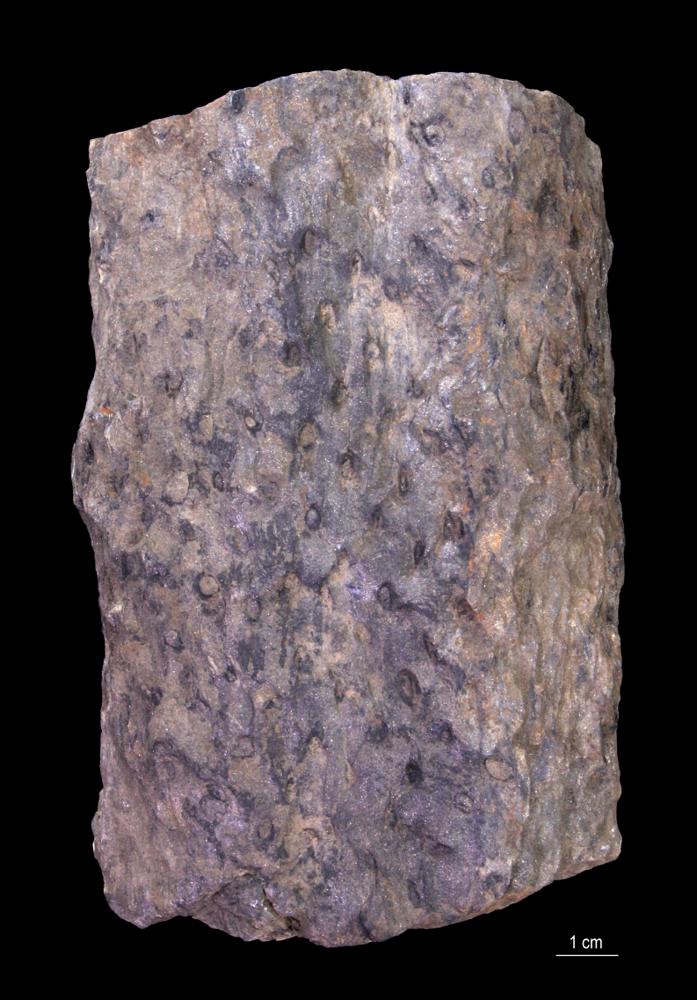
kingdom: Plantae
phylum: Tracheophyta
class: Lycopodiopsida
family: Lepidodendraceae
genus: Stigmaria
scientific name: Stigmaria ficoides
